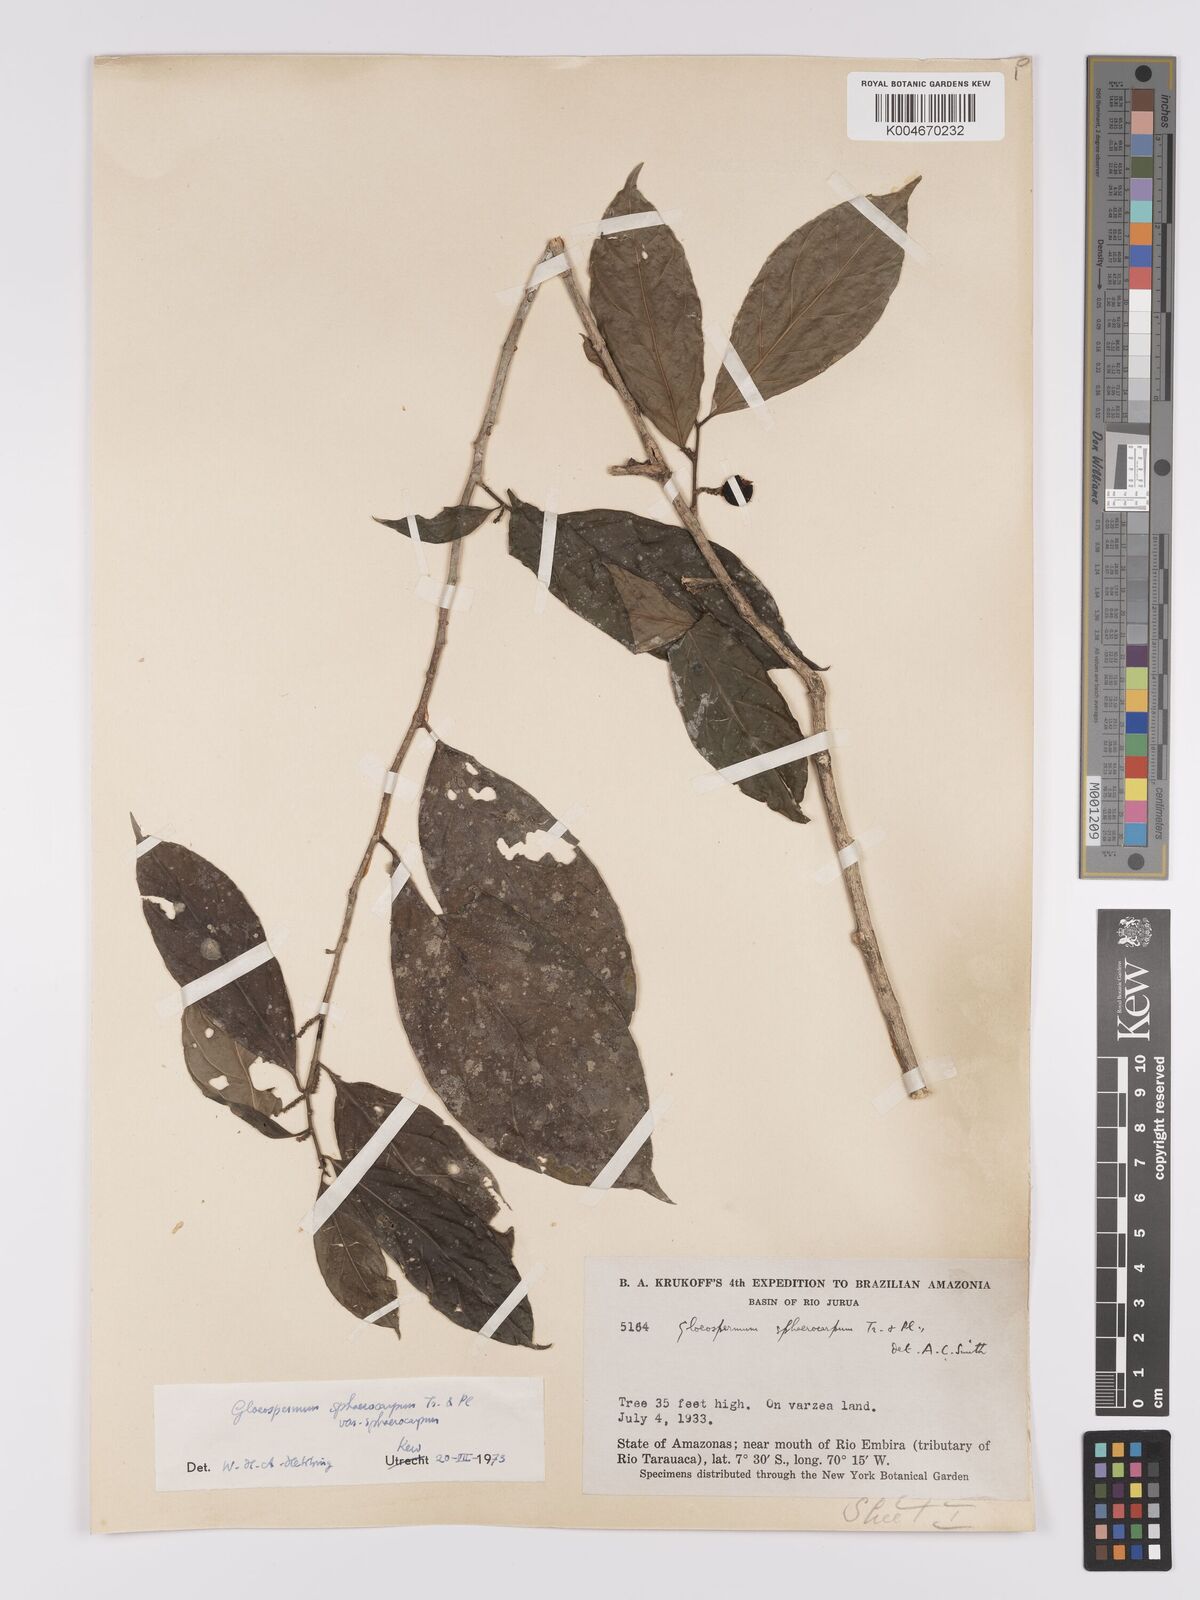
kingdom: Plantae
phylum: Tracheophyta
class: Magnoliopsida
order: Malpighiales
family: Violaceae
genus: Gloeospermum
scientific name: Gloeospermum sphaerocarpum
